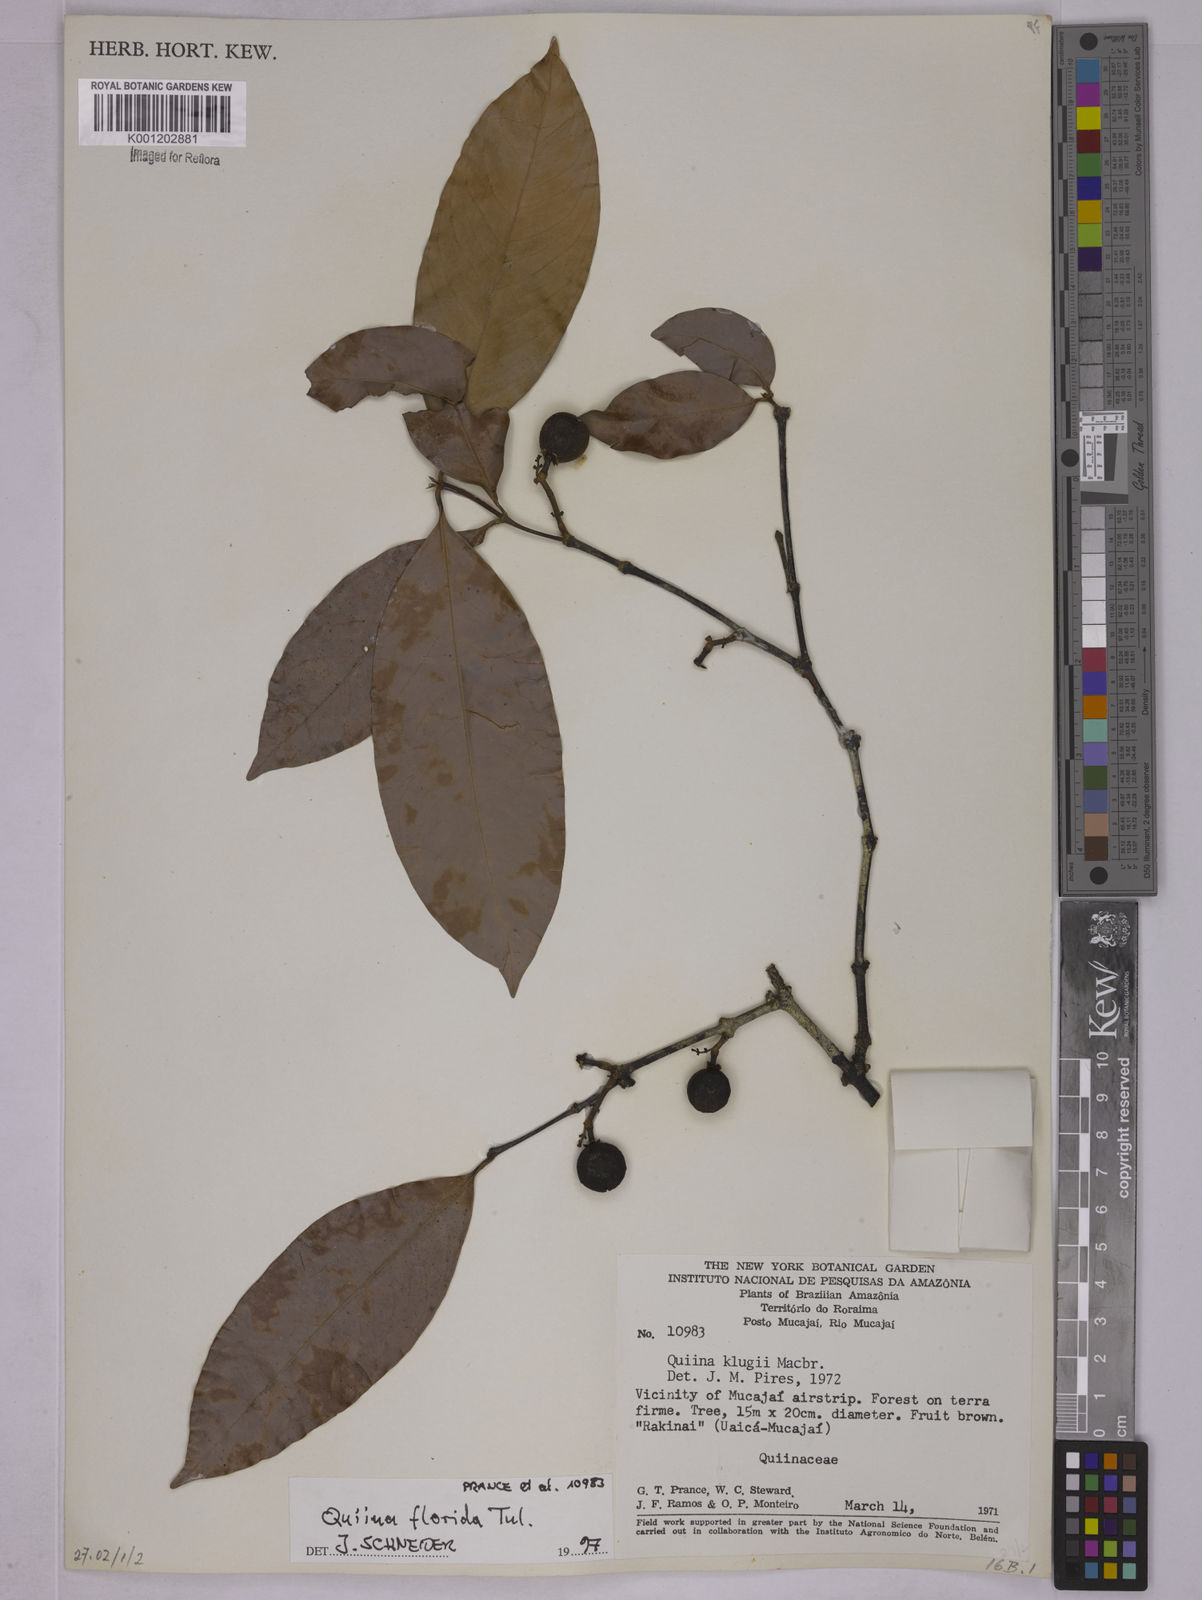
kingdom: Plantae
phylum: Tracheophyta
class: Magnoliopsida
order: Malpighiales
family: Quiinaceae
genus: Quiina
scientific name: Quiina florida
